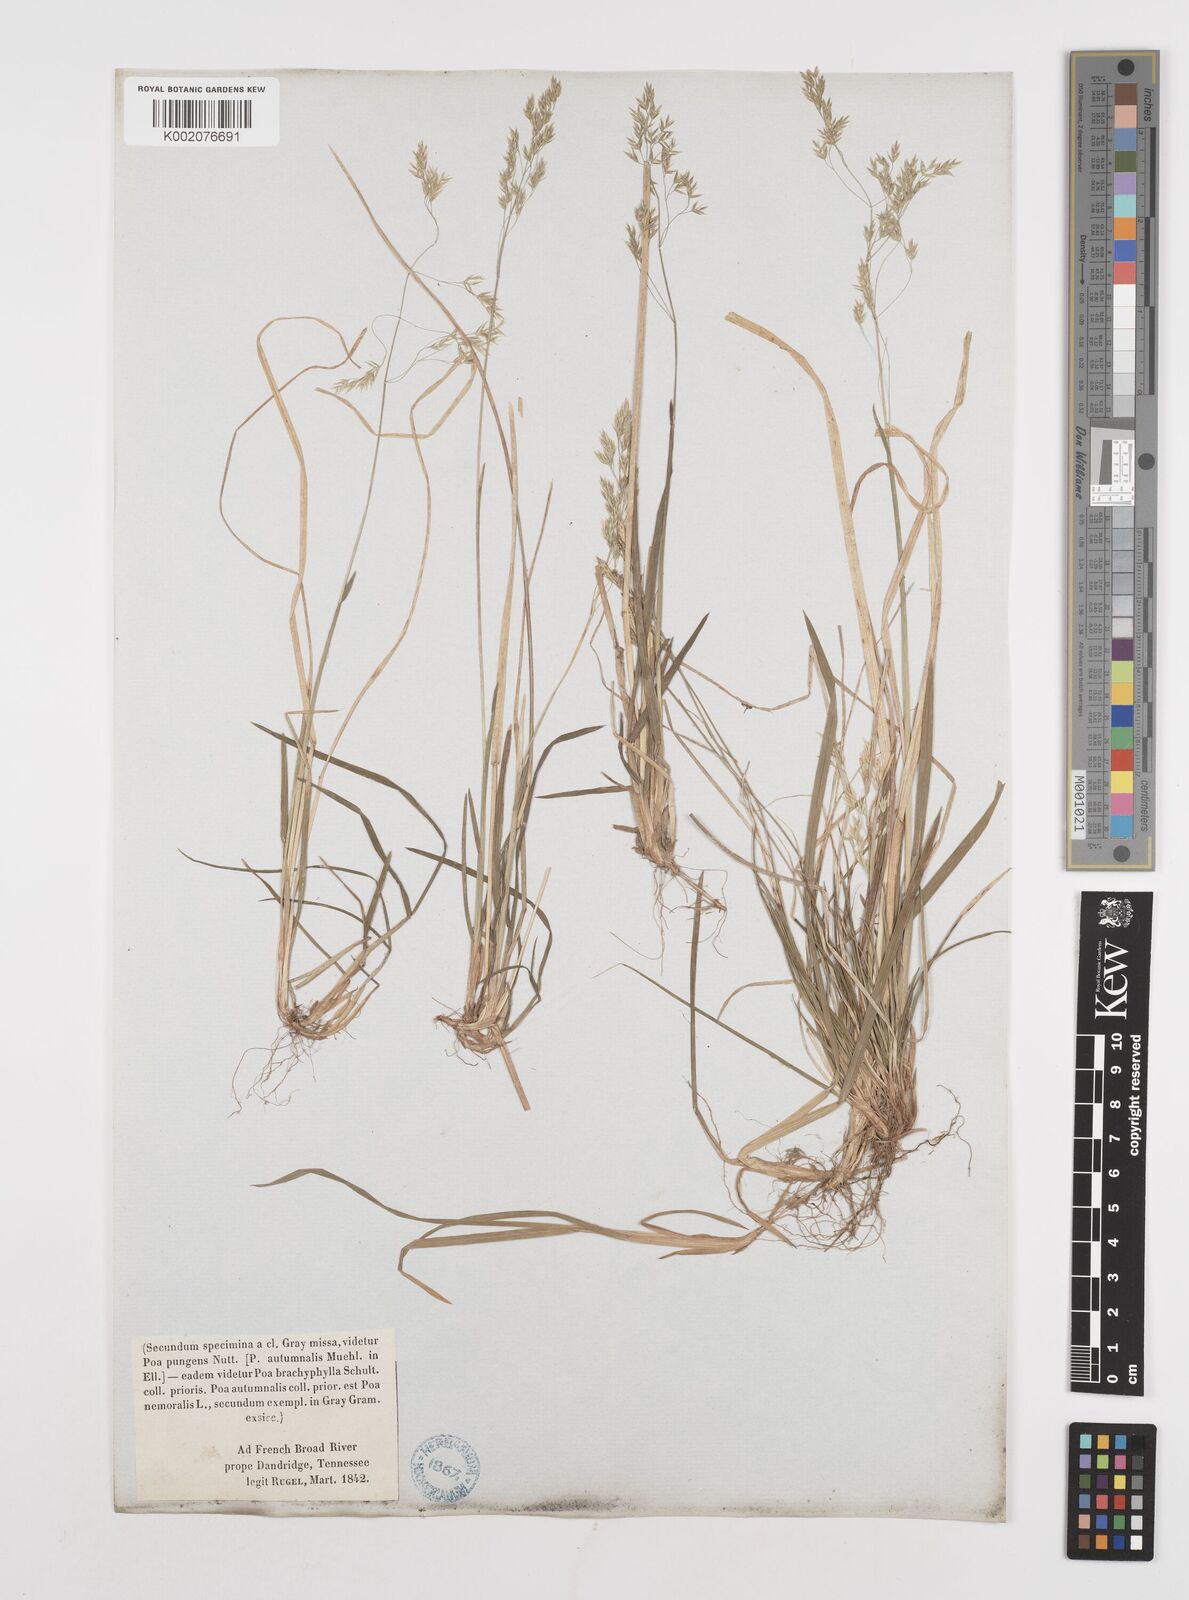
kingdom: Plantae
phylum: Tracheophyta
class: Liliopsida
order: Poales
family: Poaceae
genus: Poa
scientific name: Poa
